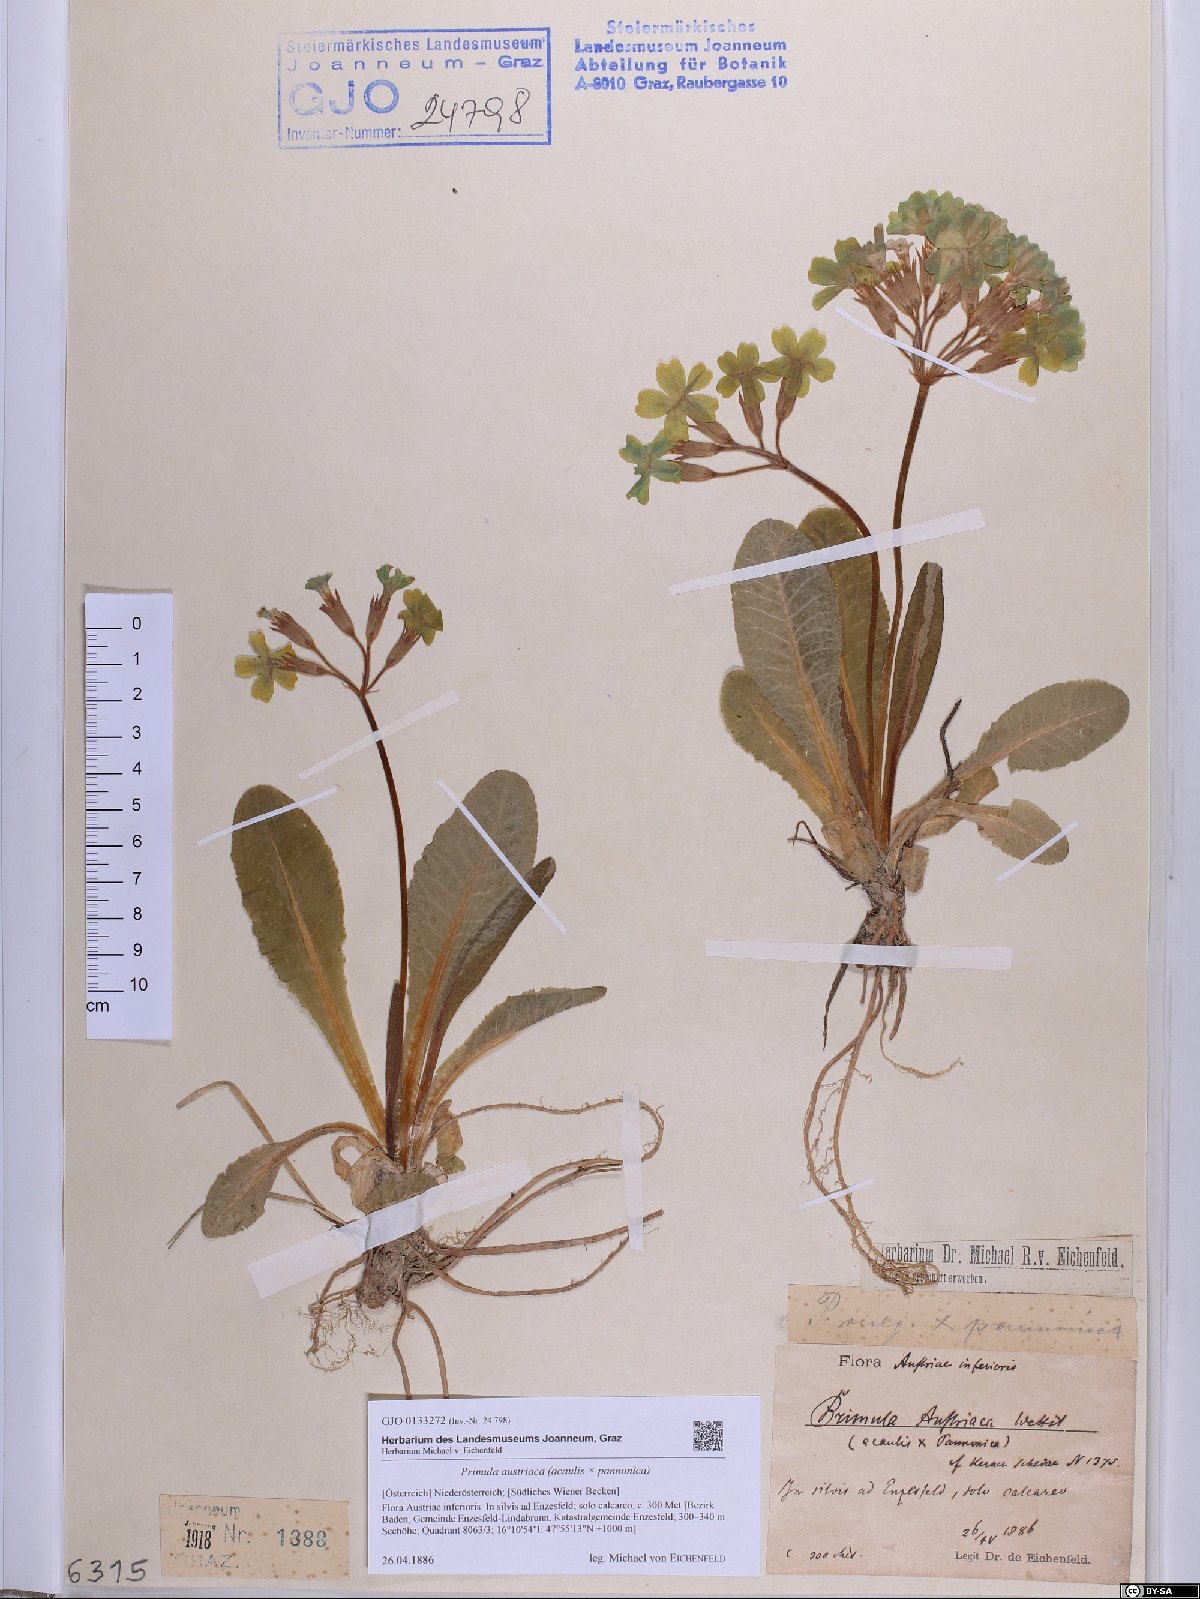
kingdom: Plantae
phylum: Tracheophyta
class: Magnoliopsida
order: Ericales
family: Primulaceae
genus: Primula
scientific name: Primula austriaca
